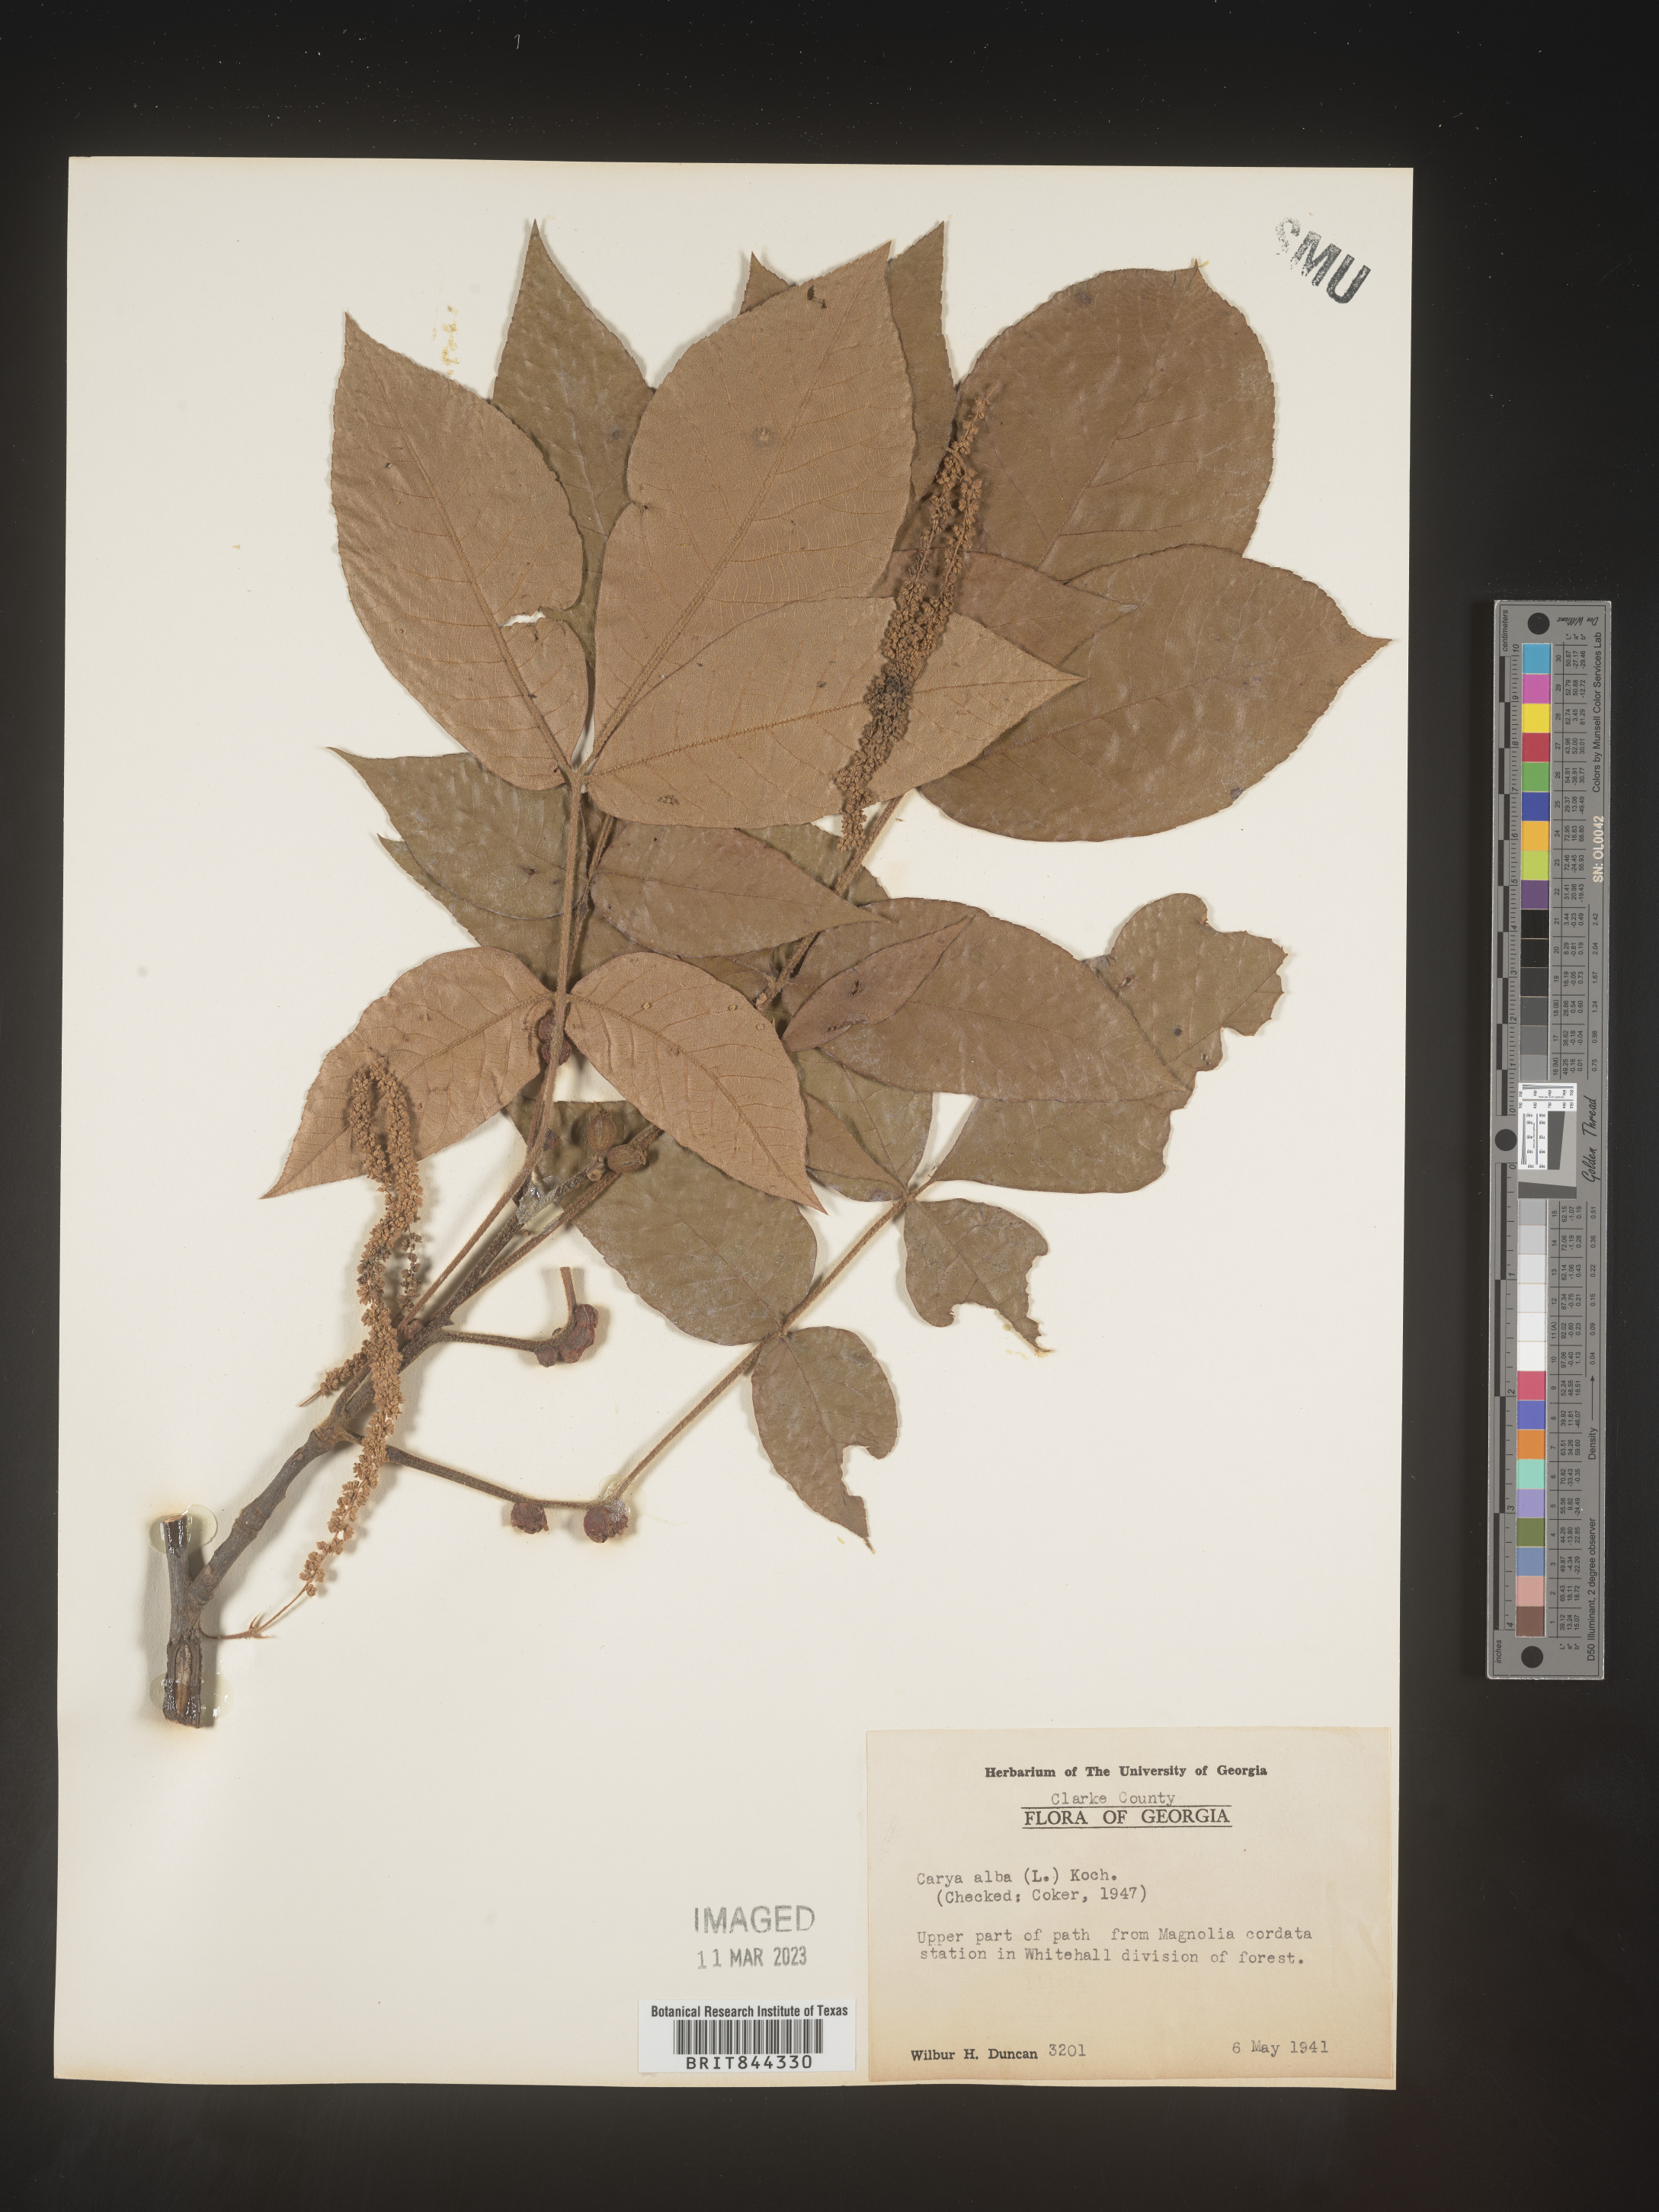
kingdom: Plantae
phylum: Tracheophyta
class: Magnoliopsida
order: Fagales
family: Juglandaceae
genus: Carya
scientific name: Carya alba
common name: Mockernut hickory
